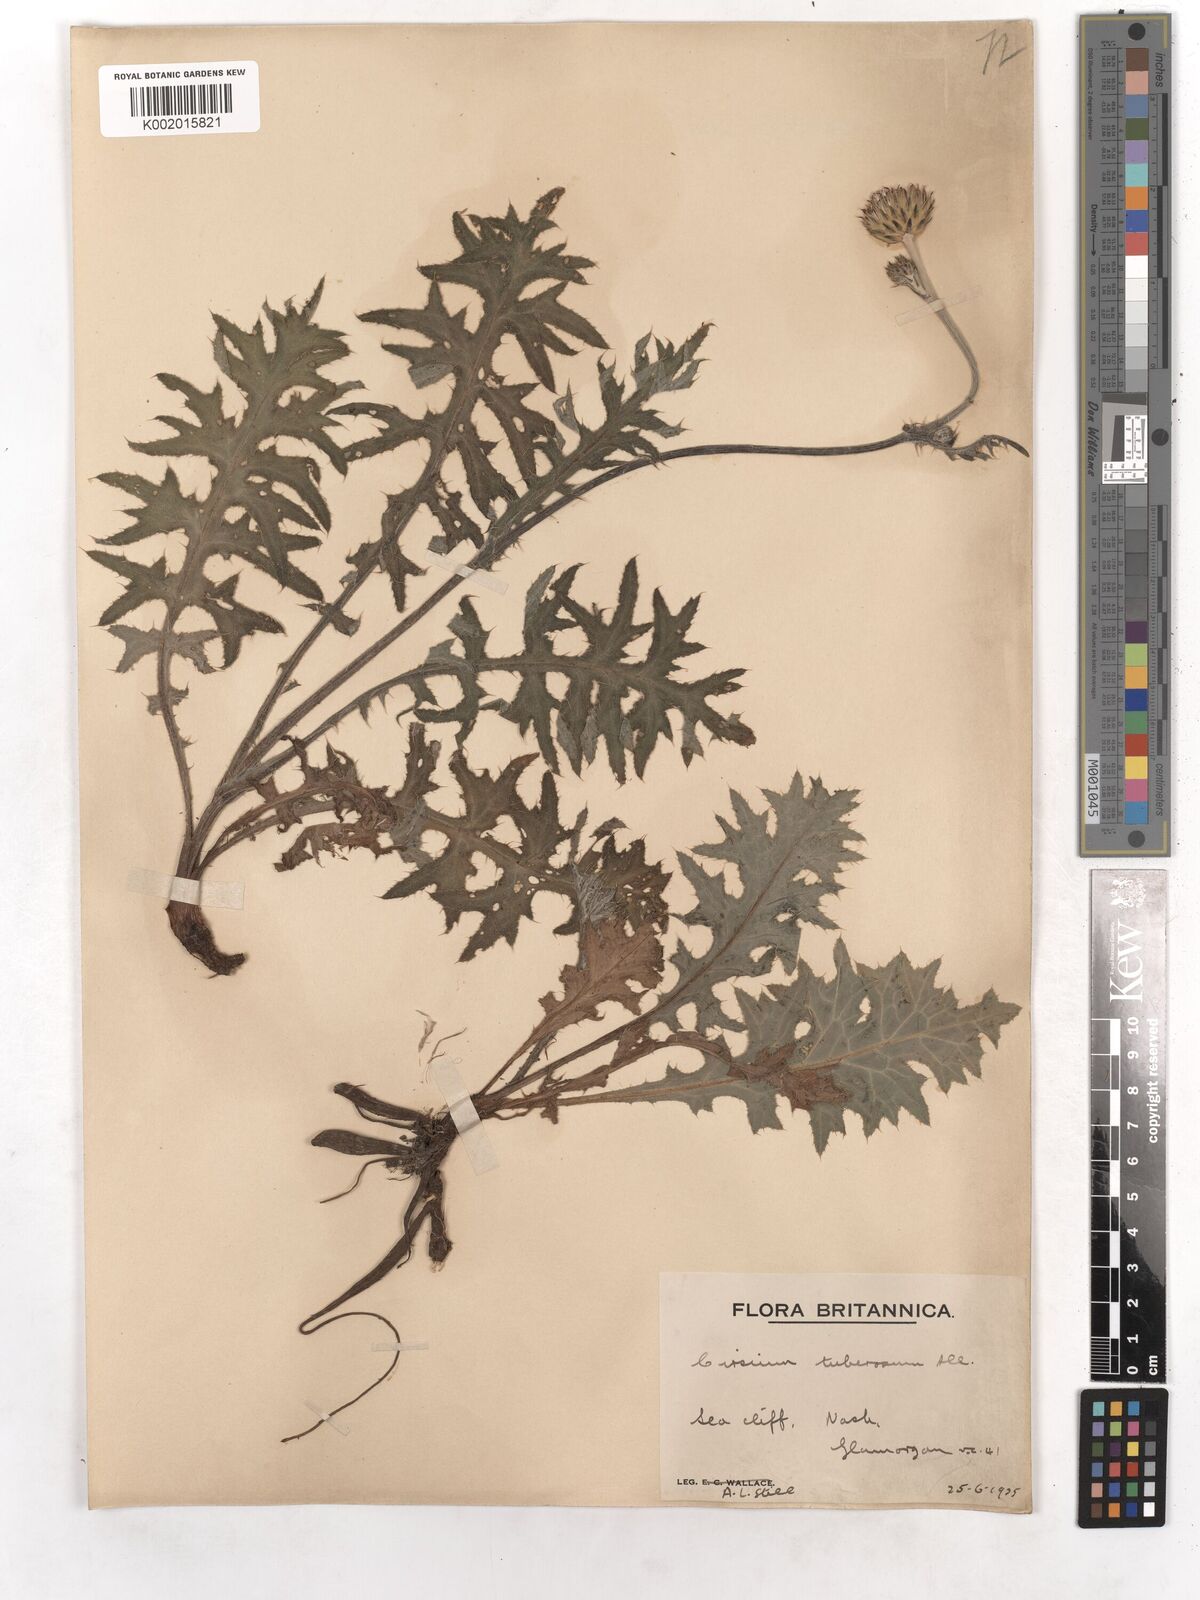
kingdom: Plantae
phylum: Tracheophyta
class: Magnoliopsida
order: Asterales
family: Asteraceae
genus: Cirsium
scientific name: Cirsium tuberosum
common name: Tuberous thistle
